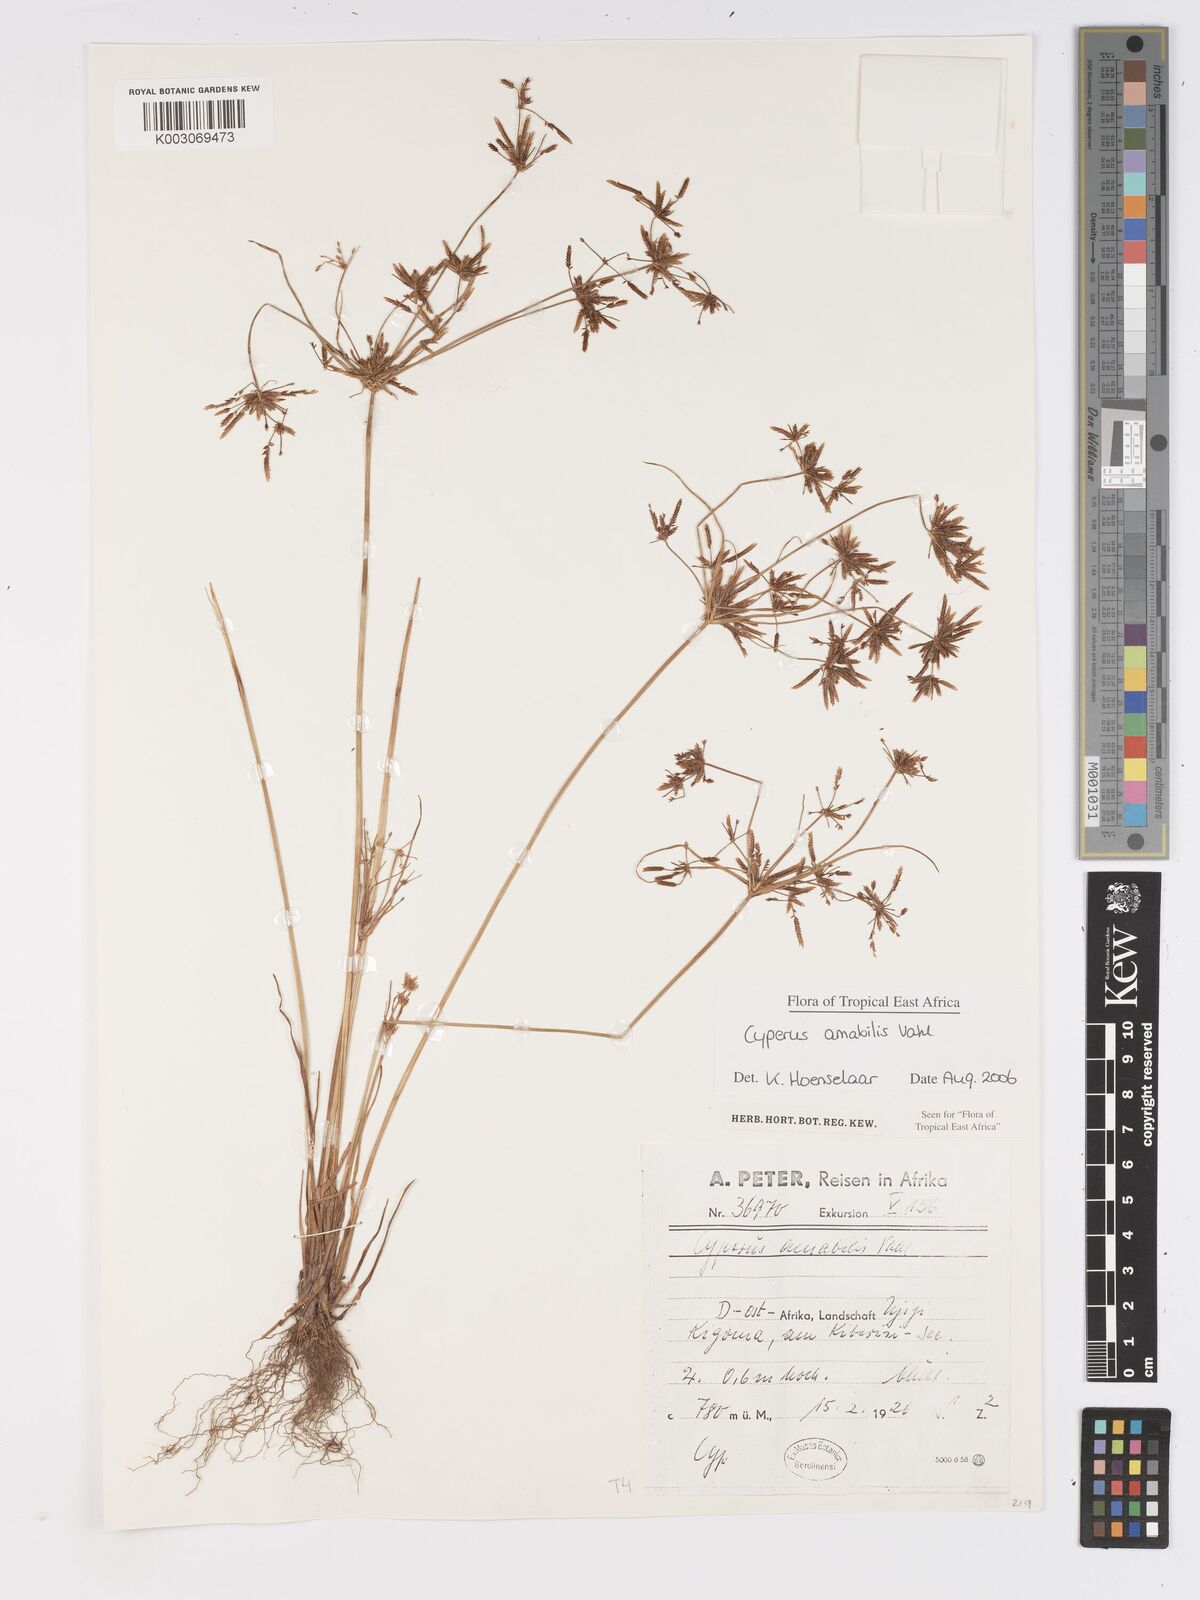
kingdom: Plantae
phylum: Tracheophyta
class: Liliopsida
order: Poales
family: Cyperaceae
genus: Cyperus
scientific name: Cyperus amabilis
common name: Foothill flat sedge
